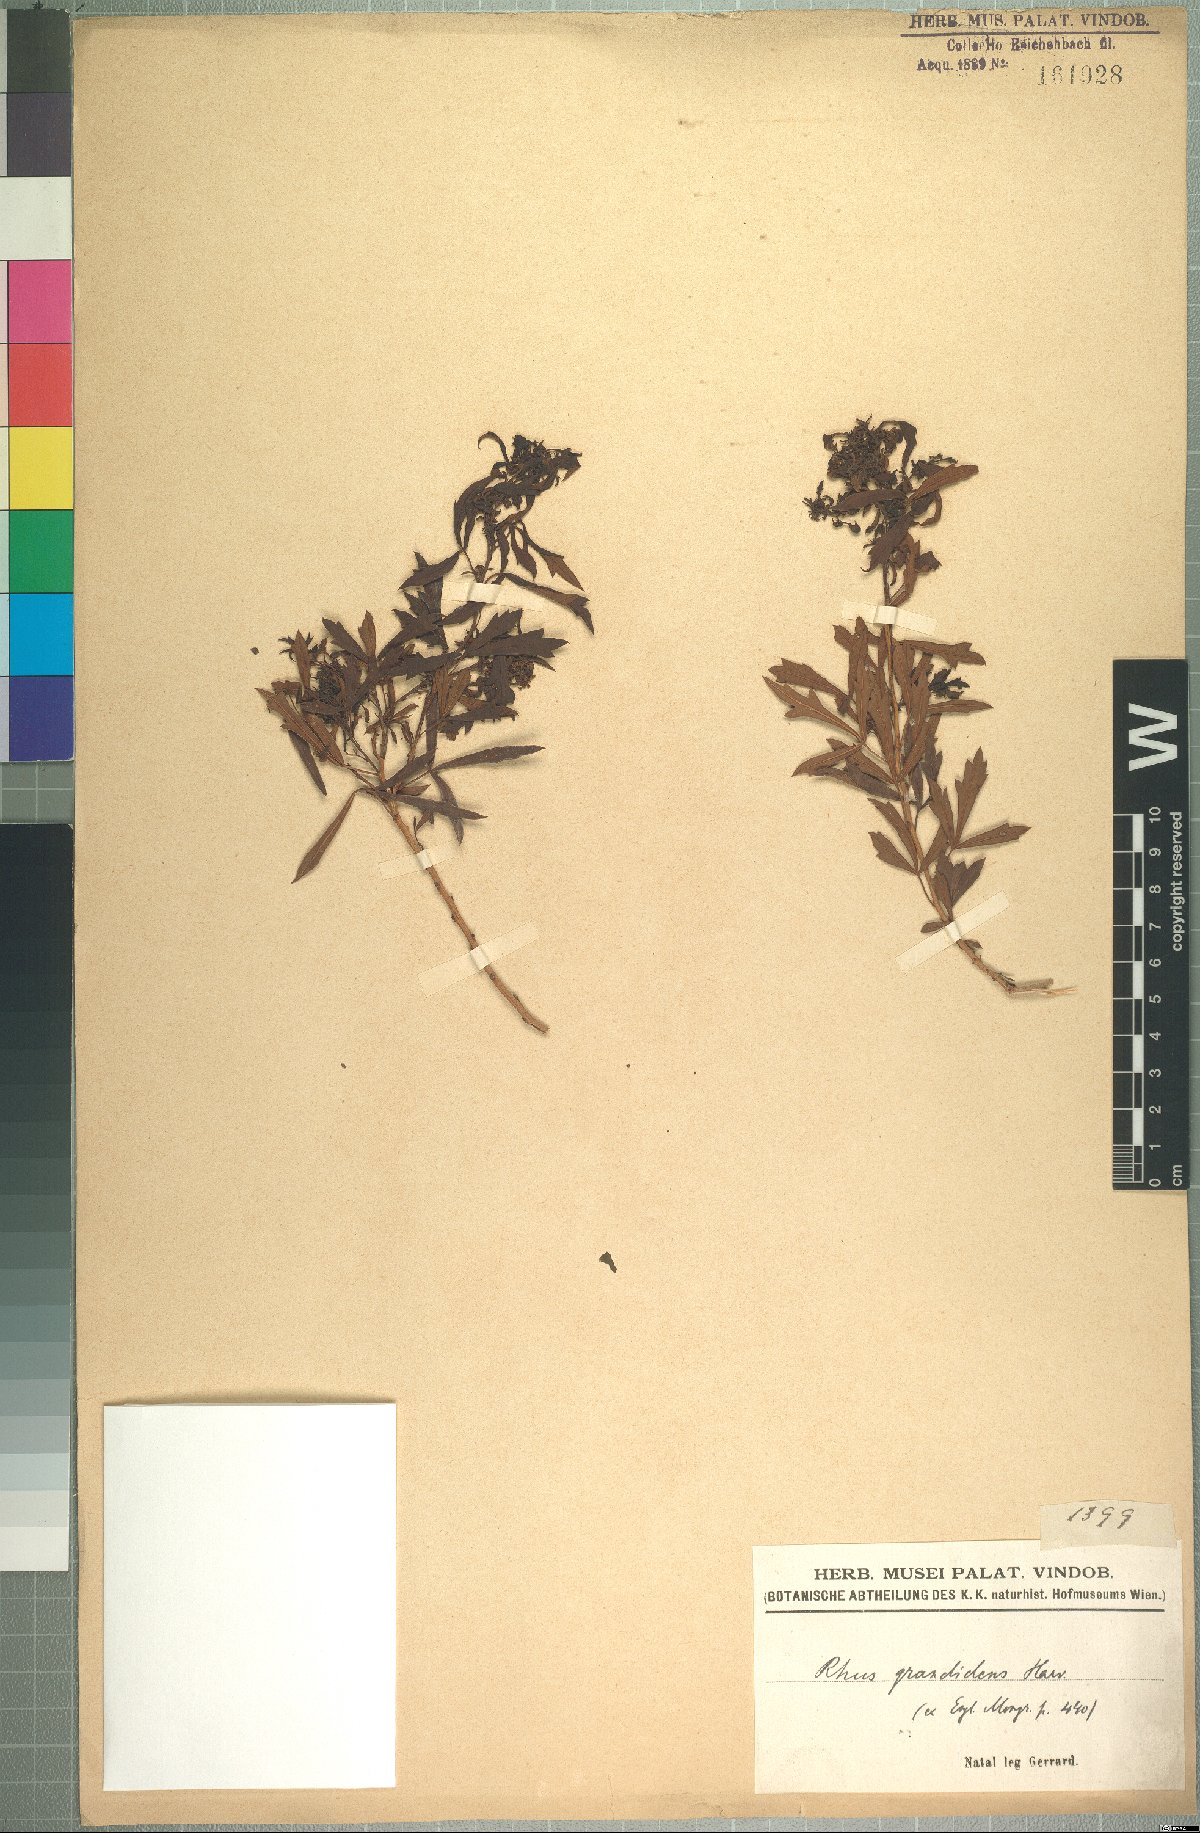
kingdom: Plantae
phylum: Tracheophyta
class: Magnoliopsida
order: Sapindales
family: Anacardiaceae
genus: Searsia
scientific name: Searsia grandidens
